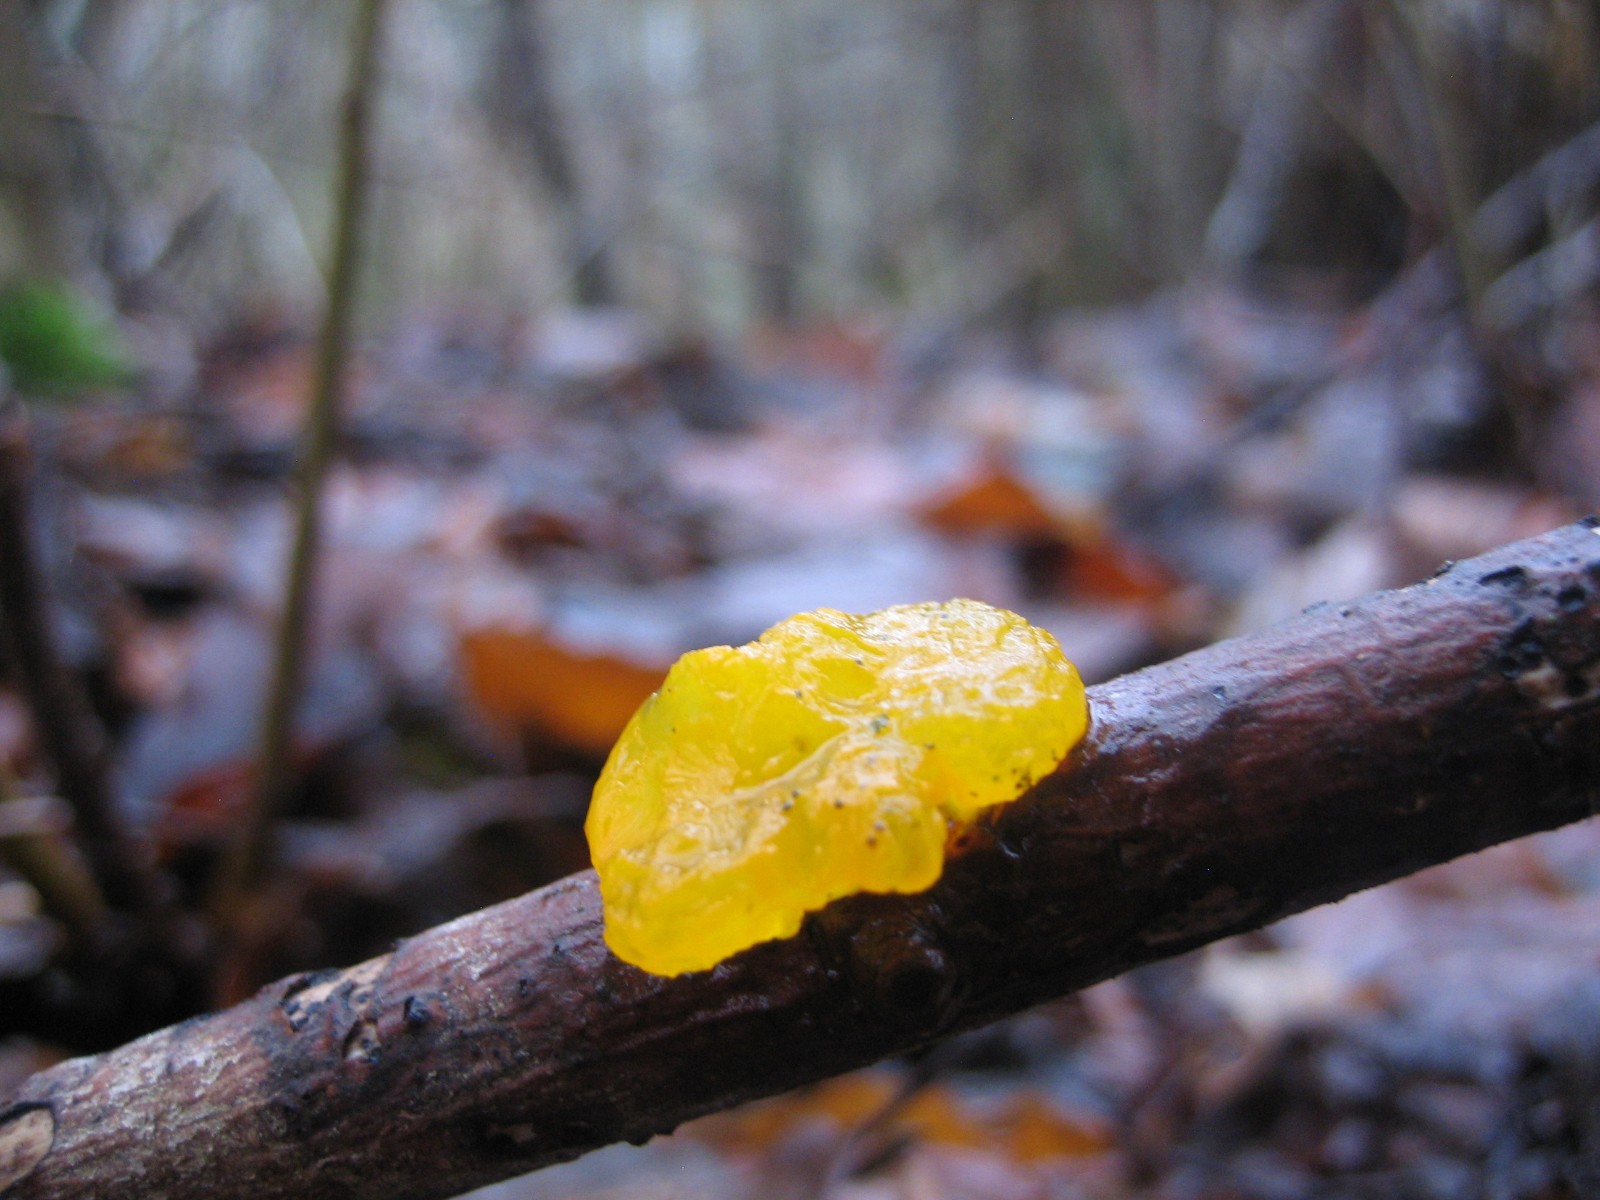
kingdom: Fungi
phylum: Basidiomycota
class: Tremellomycetes
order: Tremellales
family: Tremellaceae
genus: Tremella
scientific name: Tremella mesenterica
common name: gul bævresvamp
